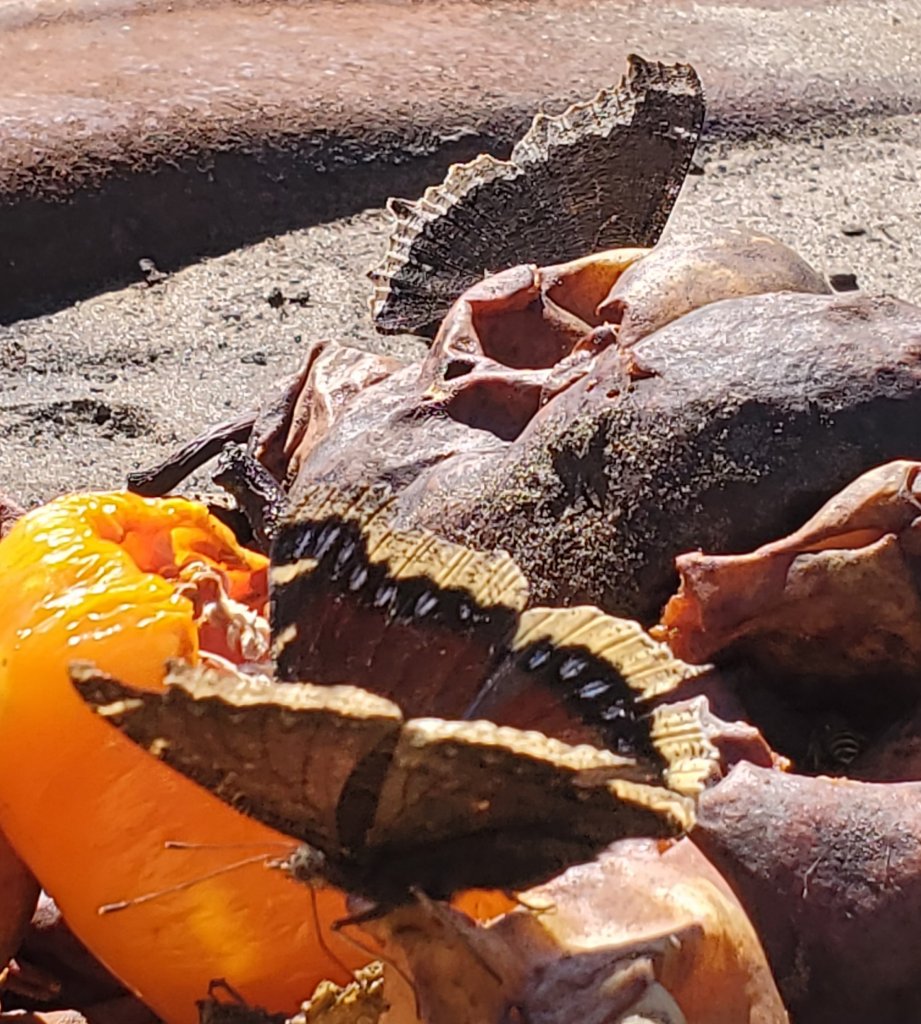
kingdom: Animalia
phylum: Arthropoda
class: Insecta
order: Lepidoptera
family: Nymphalidae
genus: Nymphalis
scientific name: Nymphalis antiopa
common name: Mourning Cloak
